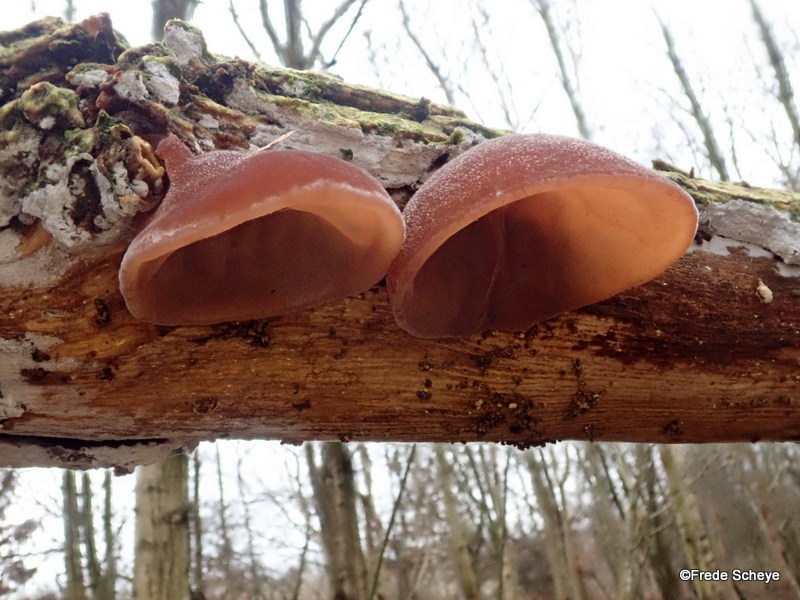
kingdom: Fungi
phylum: Basidiomycota
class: Agaricomycetes
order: Auriculariales
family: Auriculariaceae
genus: Auricularia
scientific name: Auricularia auricula-judae
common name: almindelig judasøre
